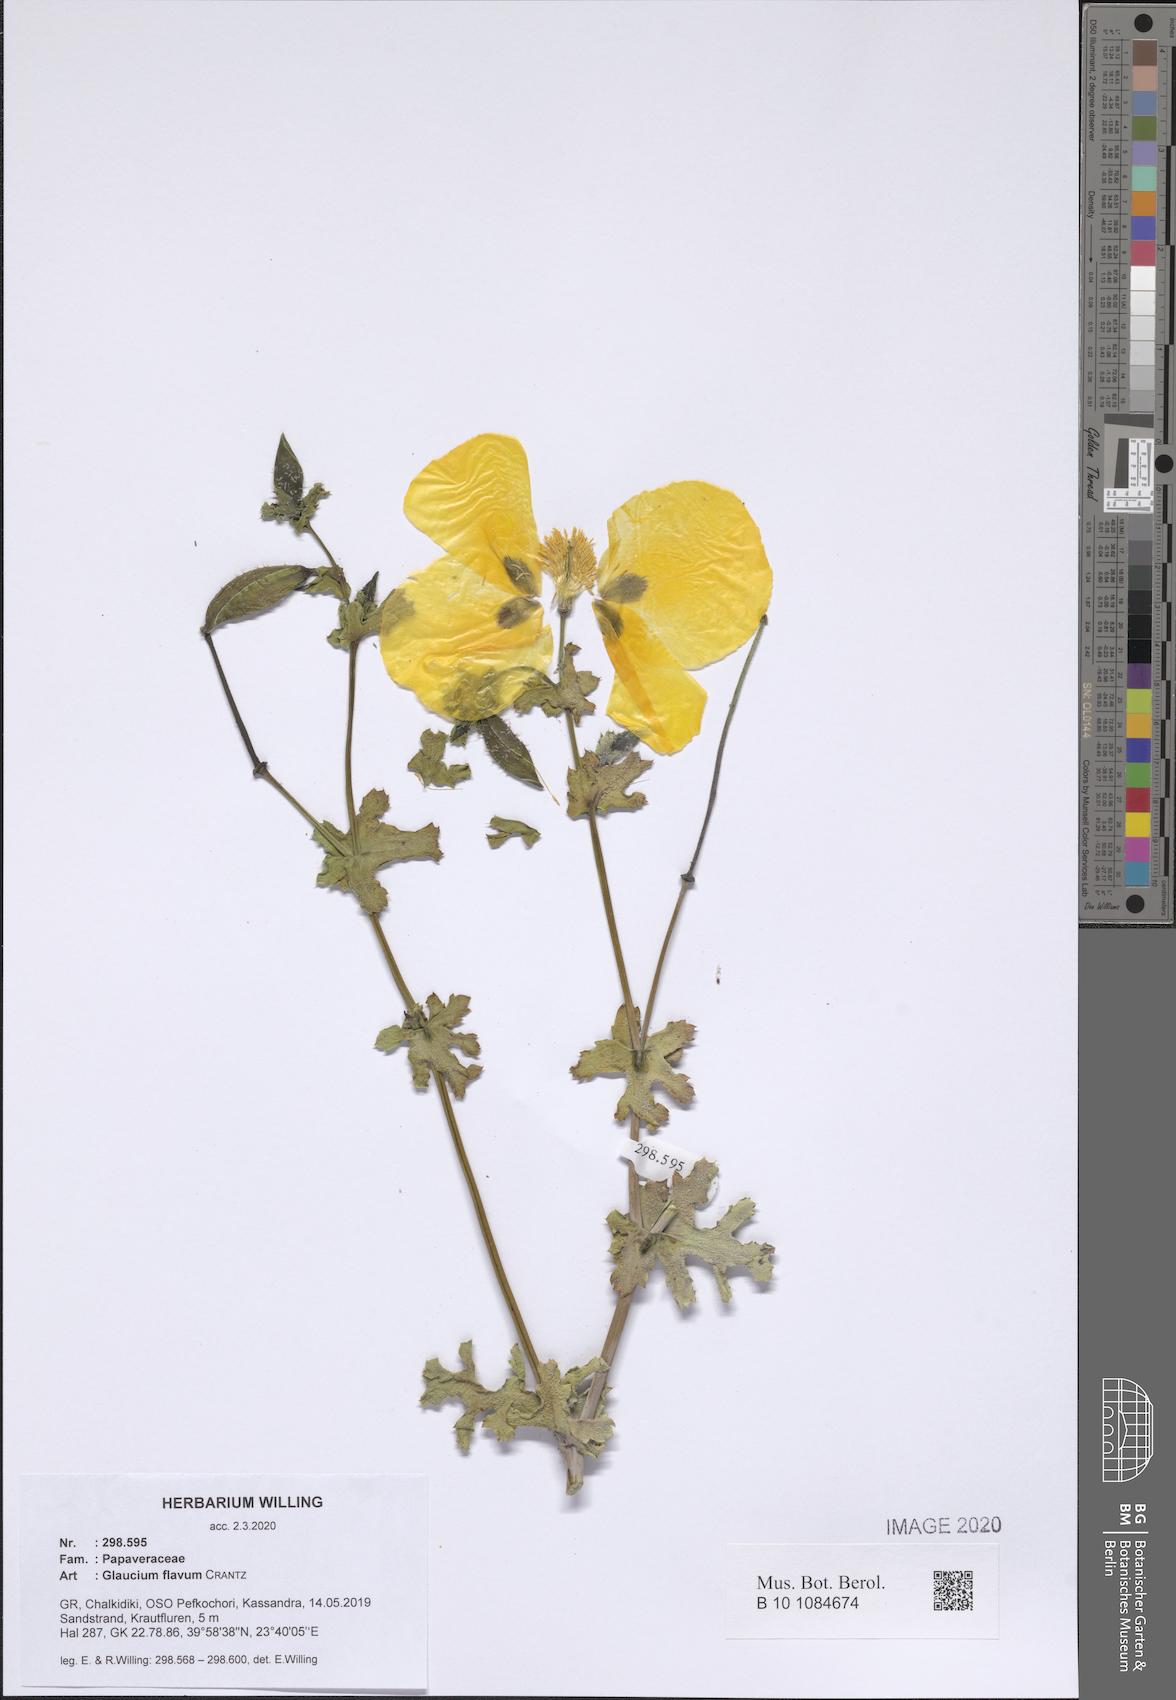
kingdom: Plantae
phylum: Tracheophyta
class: Magnoliopsida
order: Ranunculales
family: Papaveraceae
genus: Glaucium
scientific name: Glaucium flavum
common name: Yellow horned-poppy
